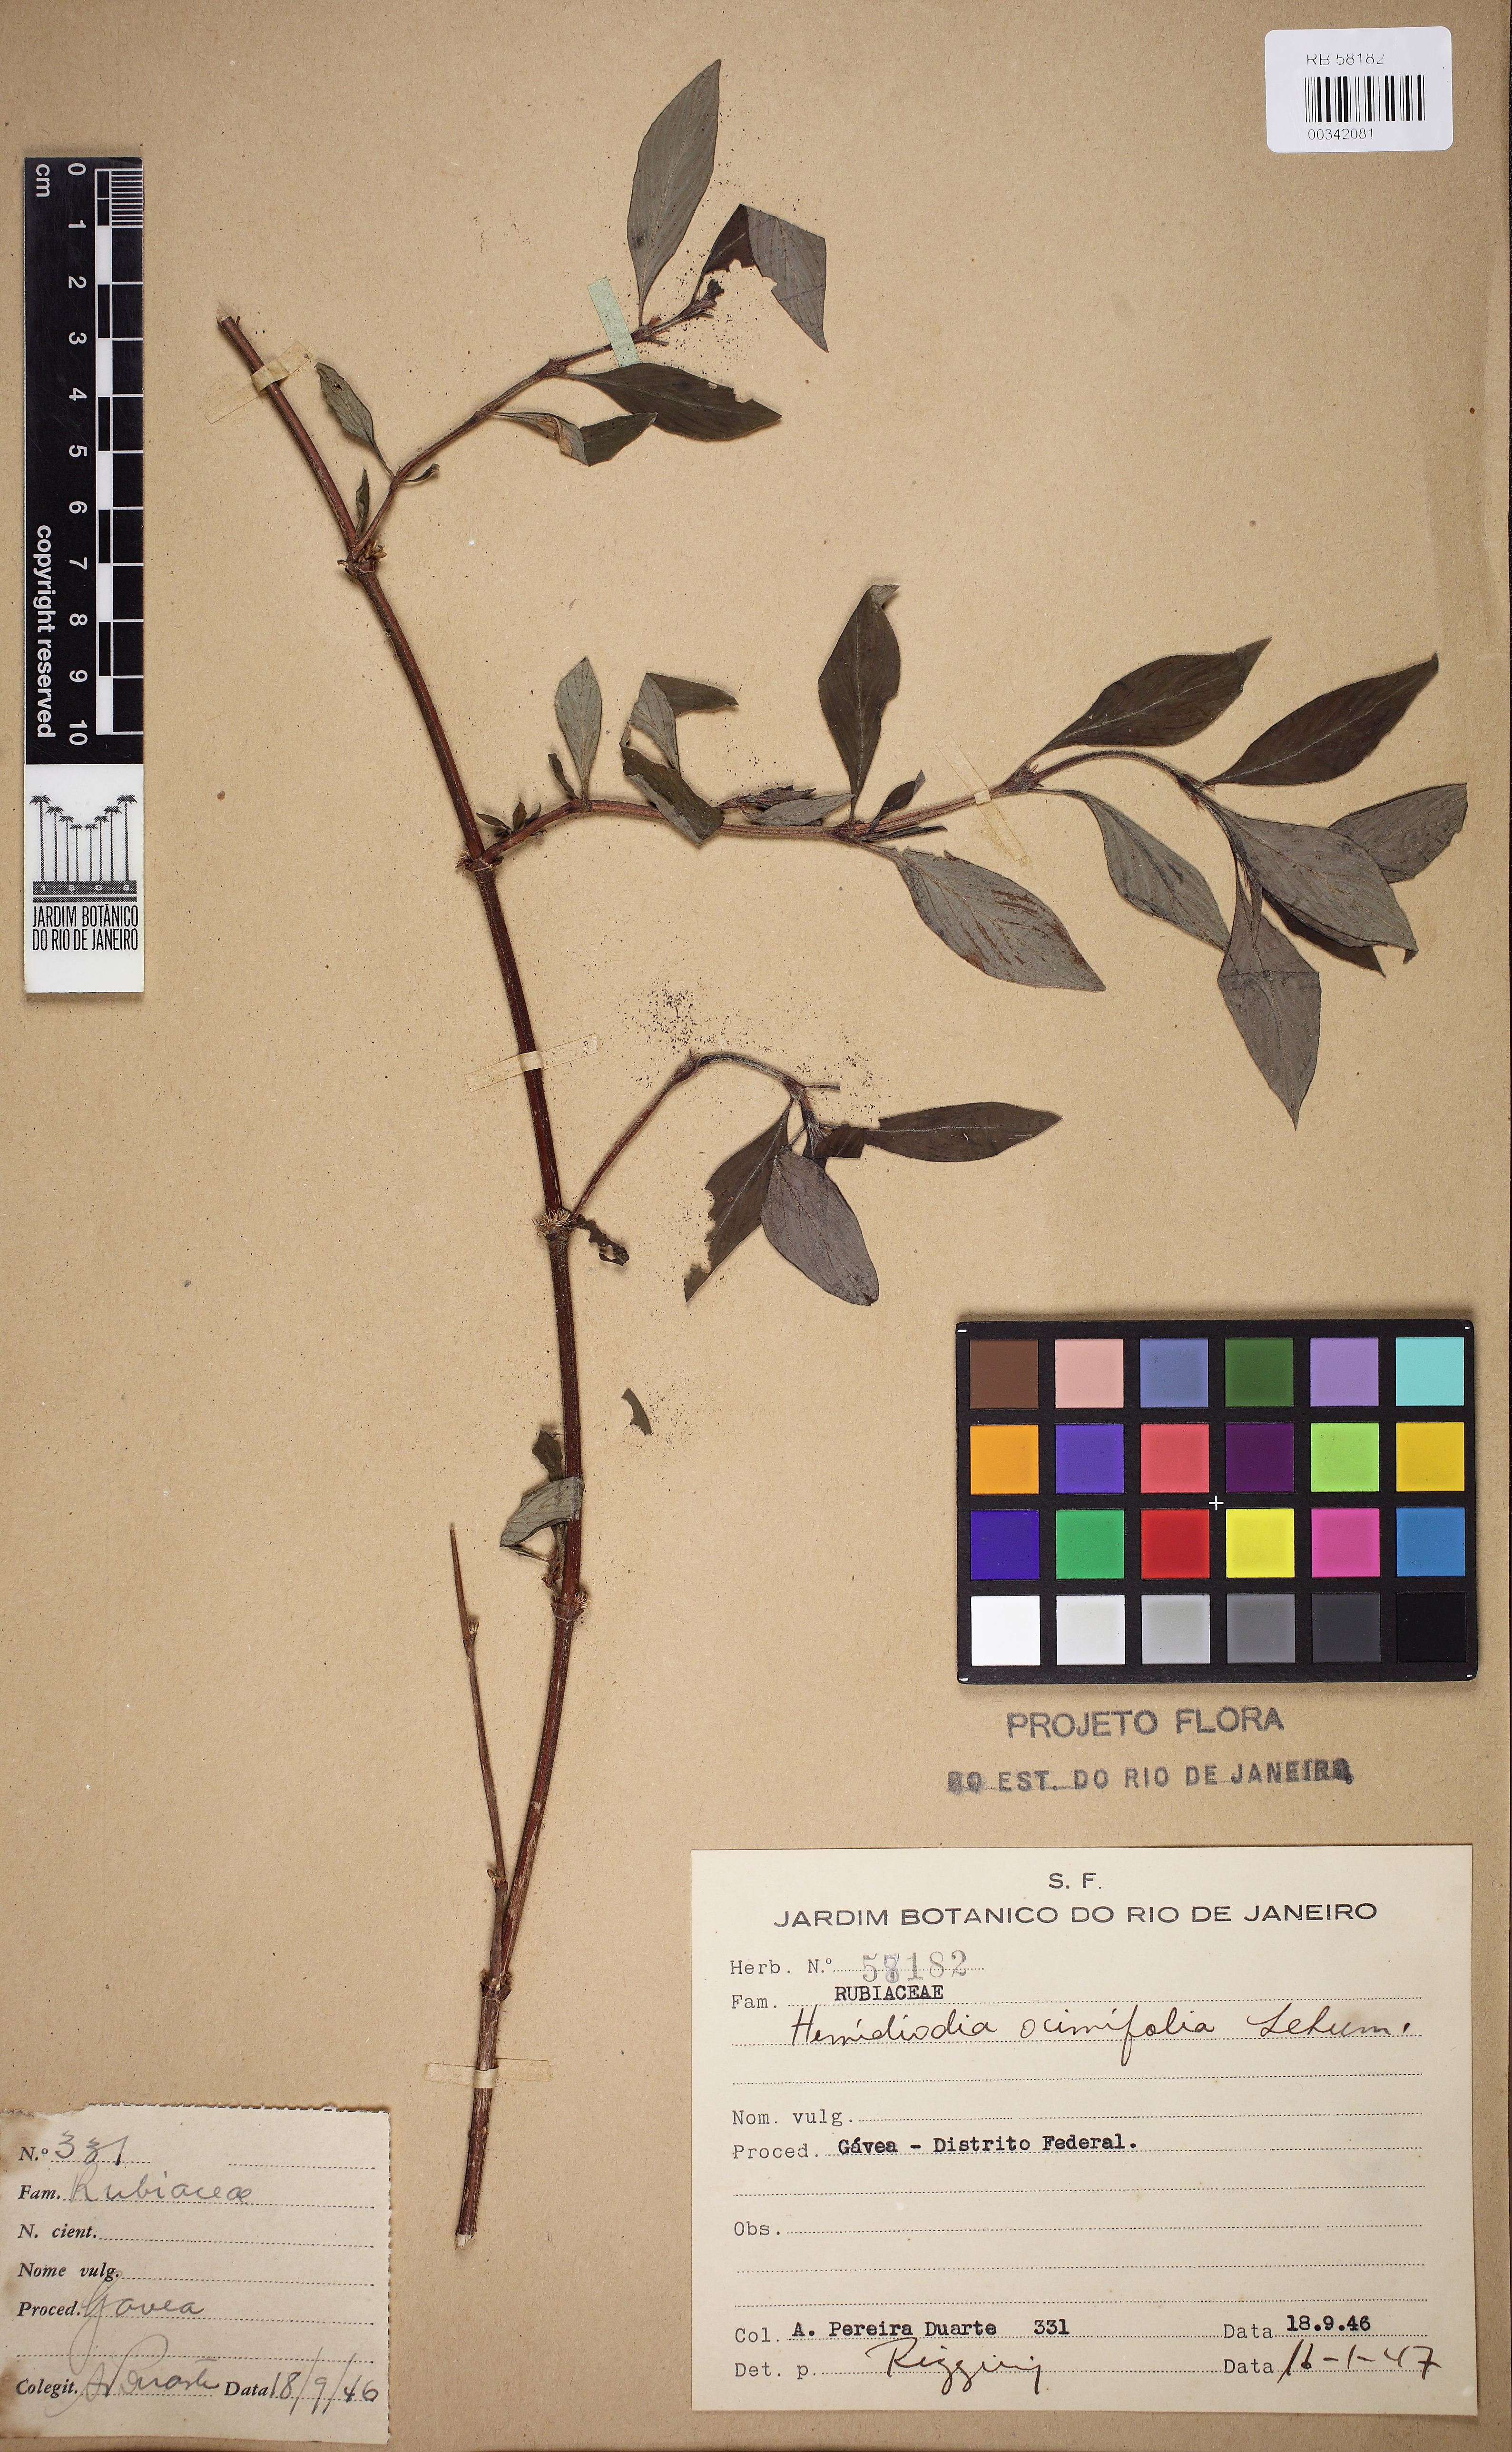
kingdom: Plantae
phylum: Tracheophyta
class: Magnoliopsida
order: Gentianales
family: Rubiaceae
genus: Spermacoce
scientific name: Spermacoce ocymifolia
